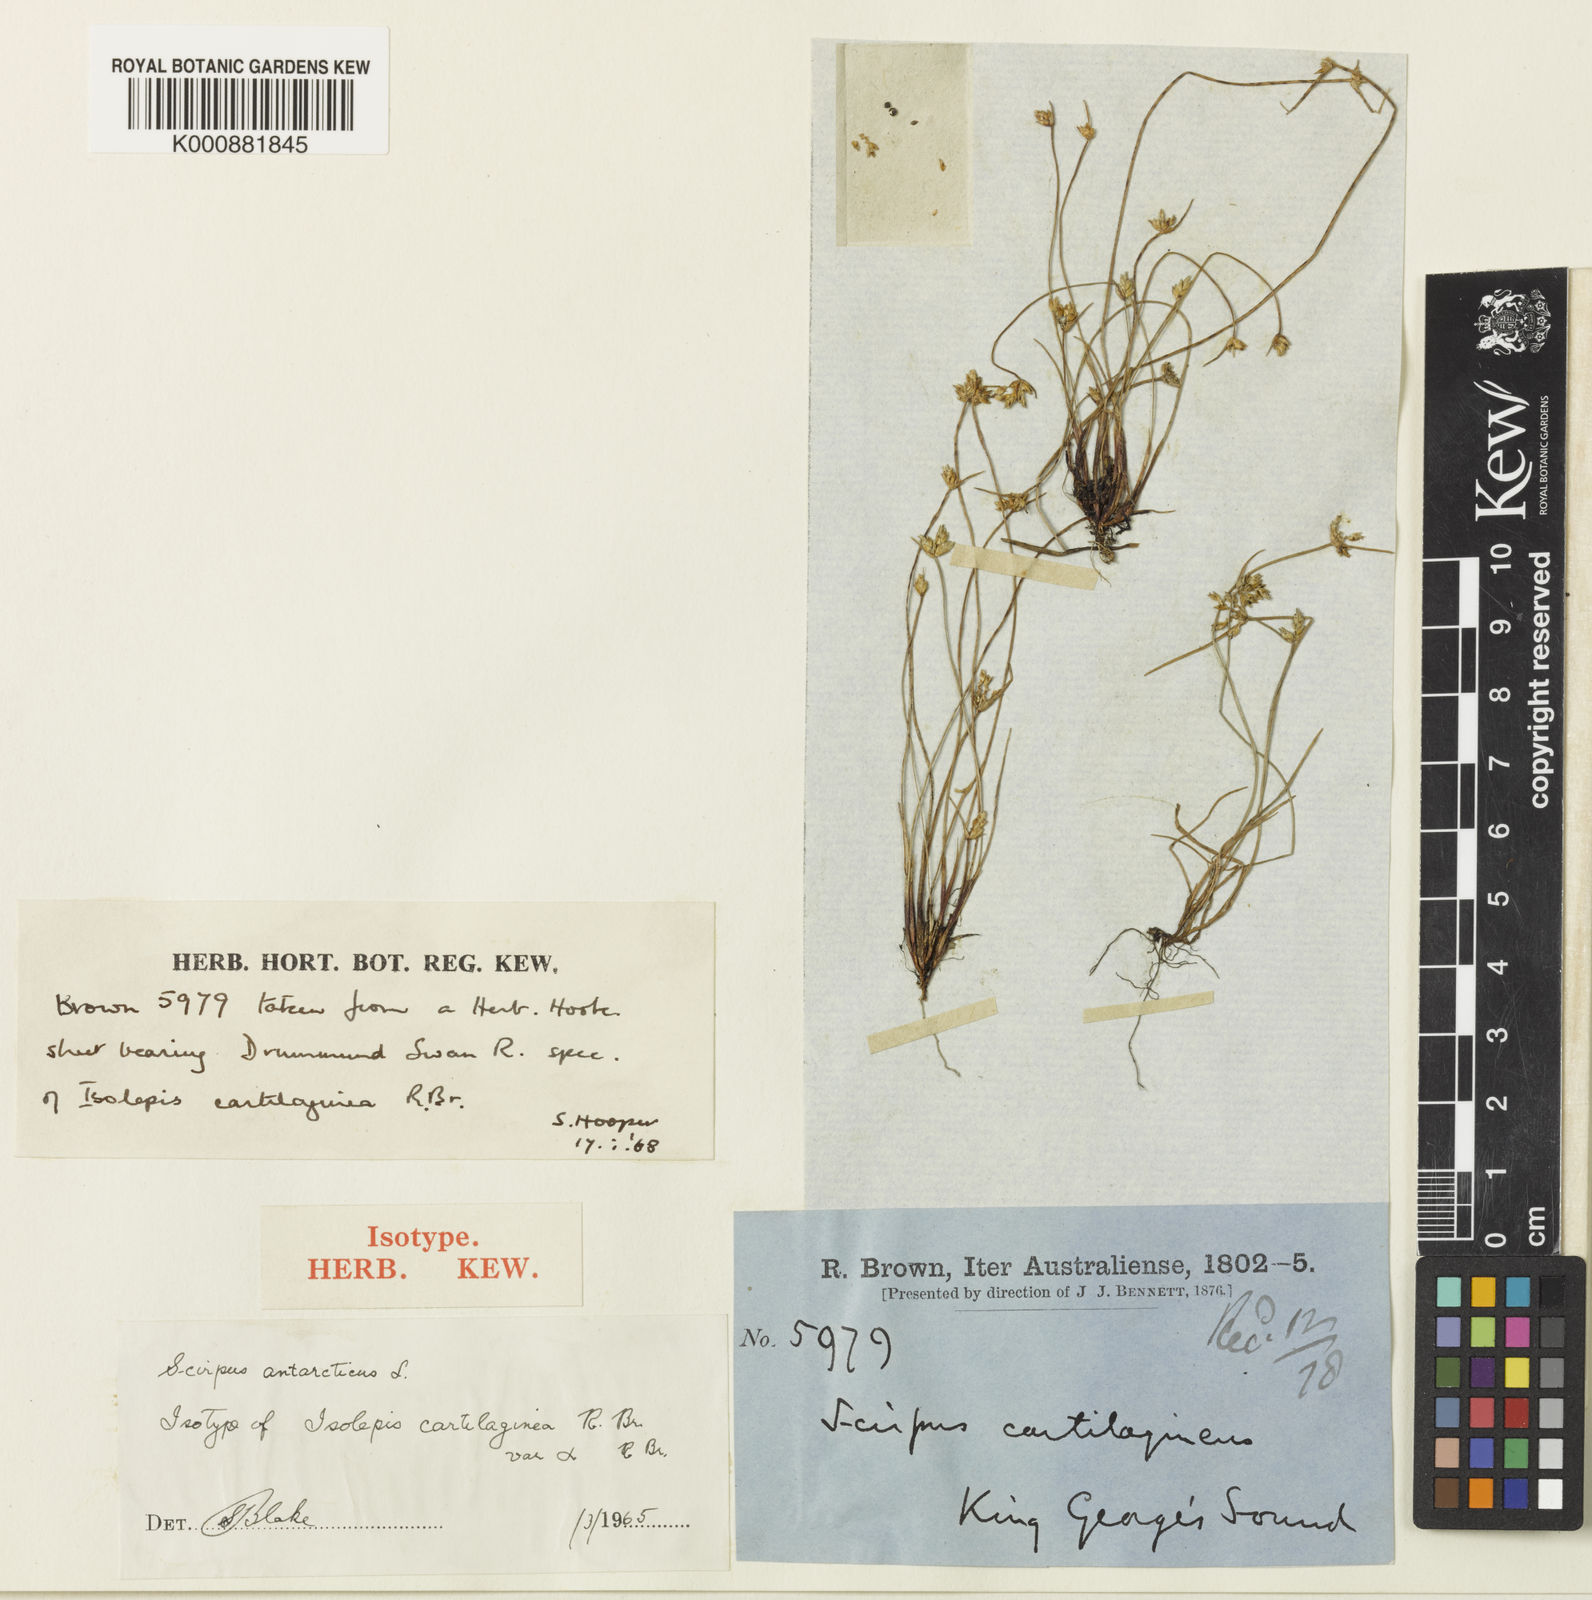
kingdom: Plantae
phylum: Tracheophyta
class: Liliopsida
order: Poales
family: Cyperaceae
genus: Isolepis
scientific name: Isolepis marginata
